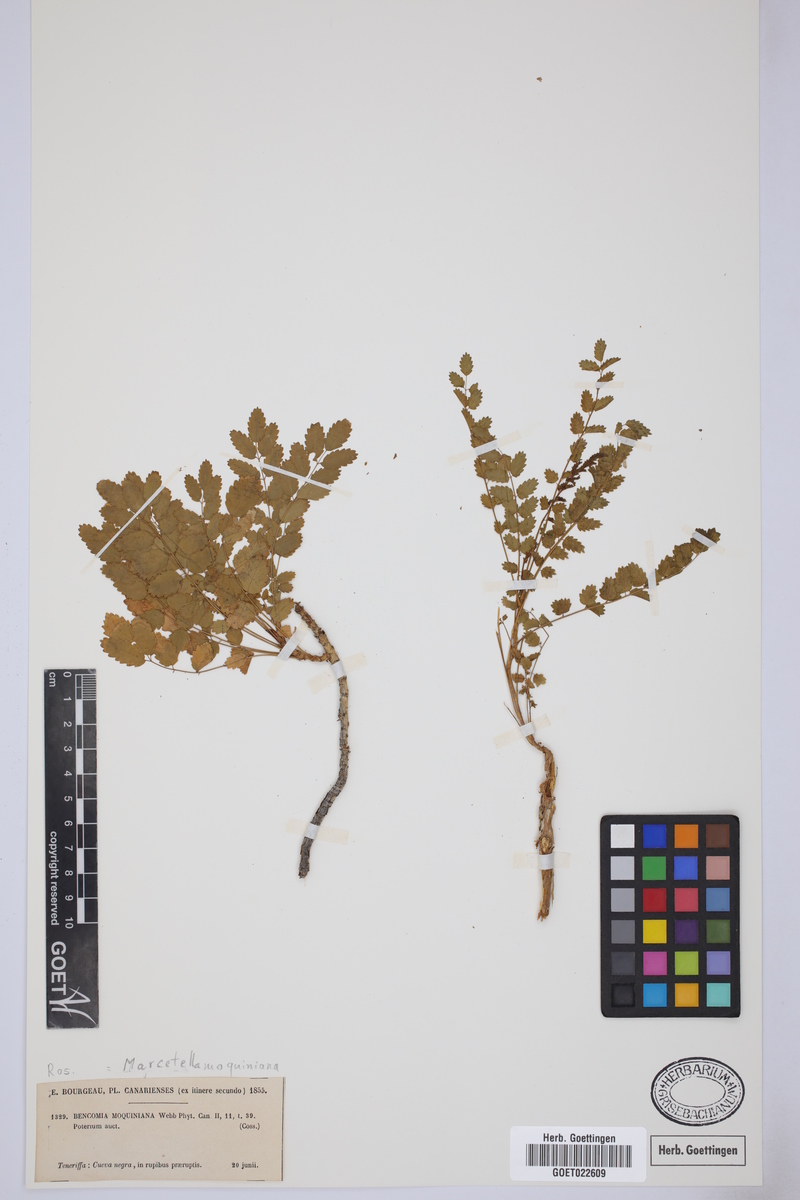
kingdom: Plantae
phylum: Tracheophyta
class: Magnoliopsida
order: Rosales
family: Rosaceae
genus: Marcetella
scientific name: Marcetella moquiniana
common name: Burnet tree
